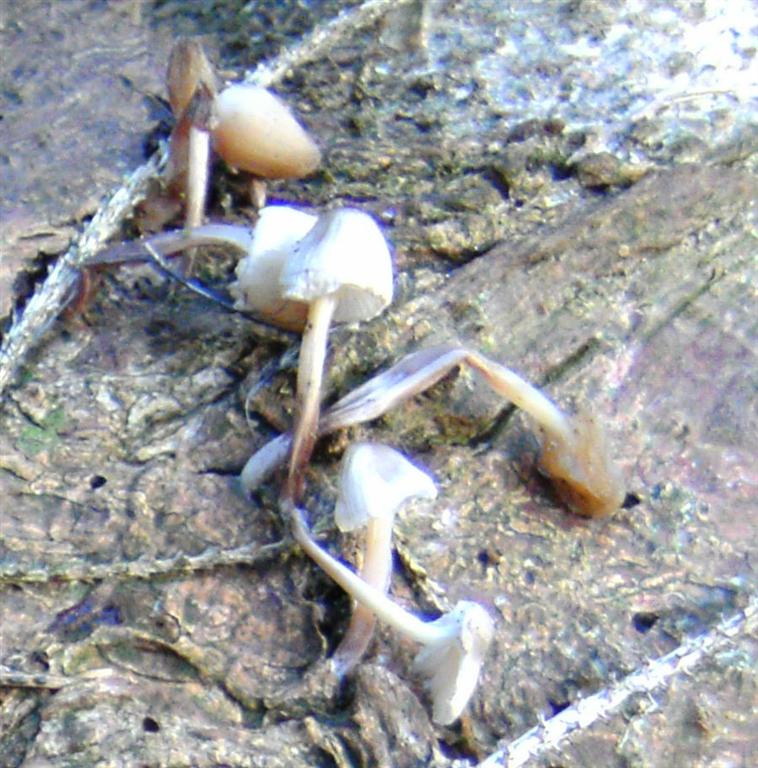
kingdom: Fungi
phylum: Basidiomycota
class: Agaricomycetes
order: Agaricales
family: Mycenaceae
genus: Mycena
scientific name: Mycena epipterygia
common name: gulstokket huesvamp
